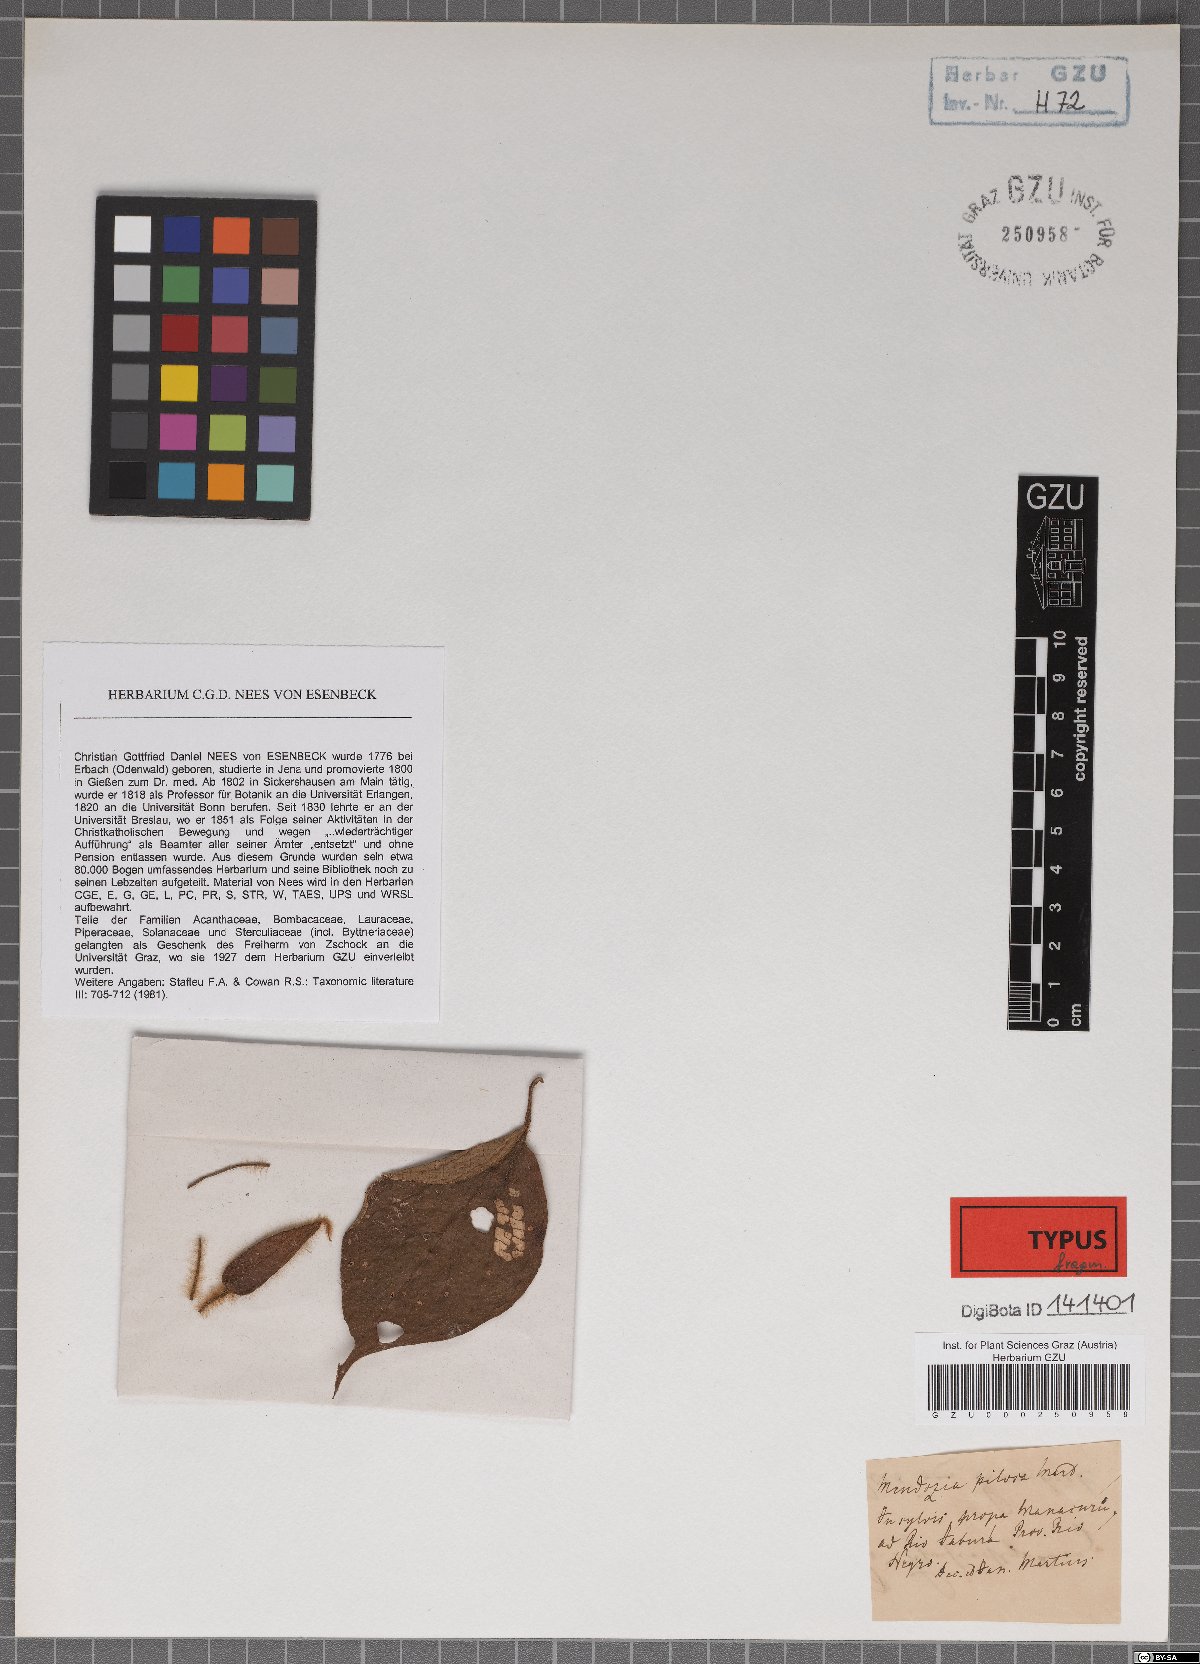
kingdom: Plantae
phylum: Tracheophyta
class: Magnoliopsida
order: Lamiales
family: Acanthaceae
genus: Mendoncia
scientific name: Mendoncia pilosa
